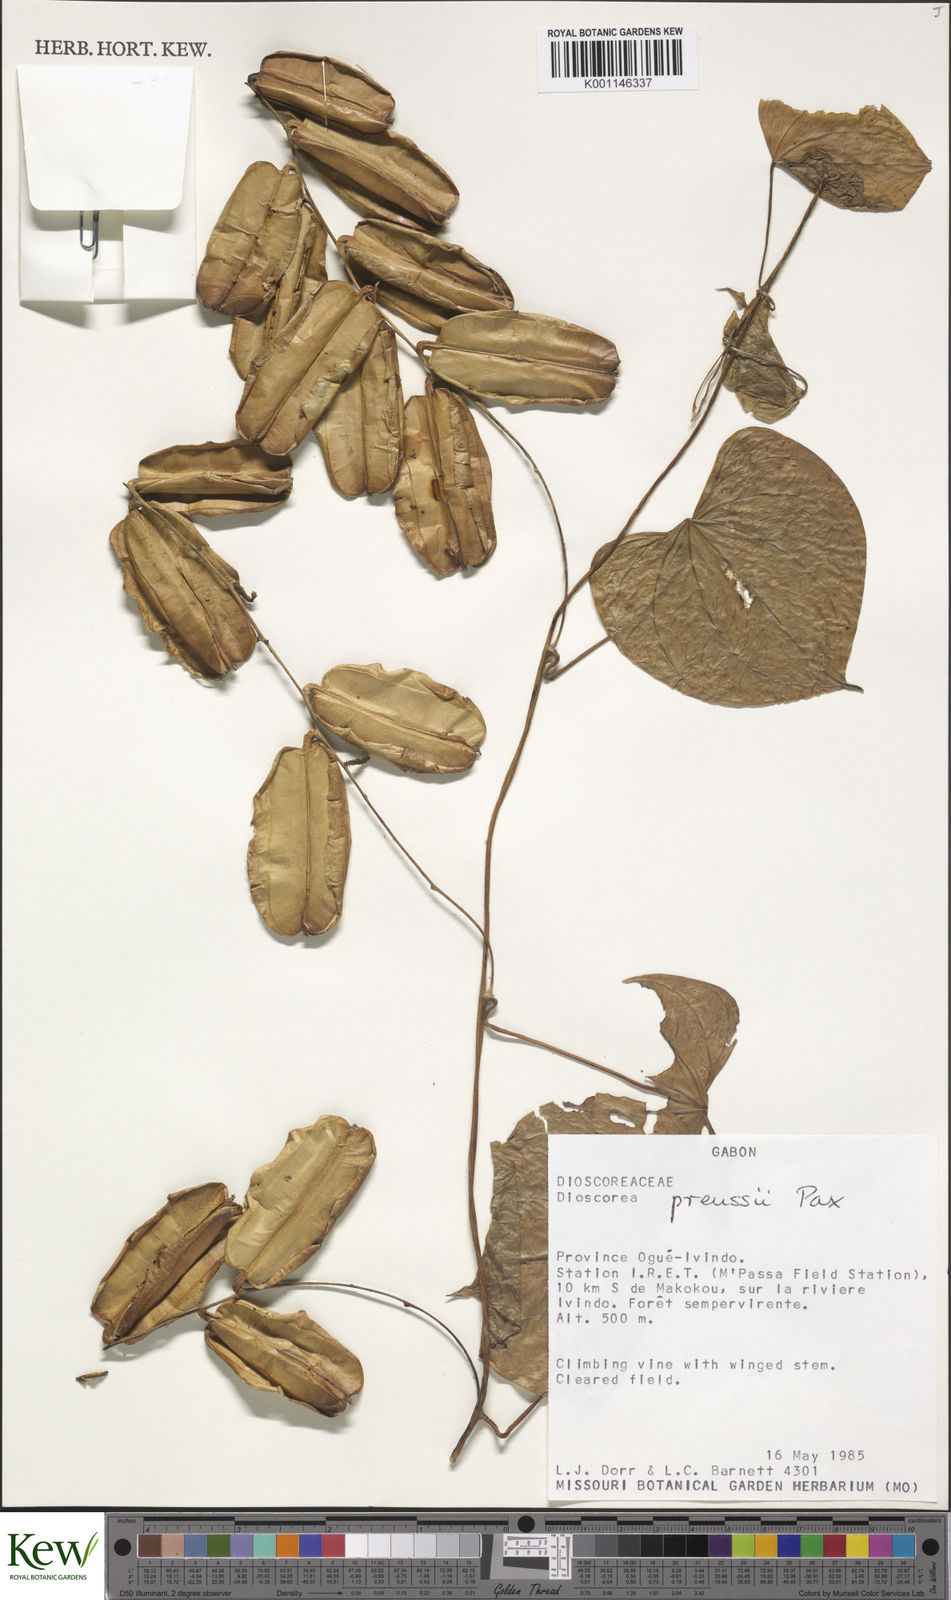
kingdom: Plantae
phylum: Tracheophyta
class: Liliopsida
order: Dioscoreales
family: Dioscoreaceae
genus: Dioscorea
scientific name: Dioscorea preussii
